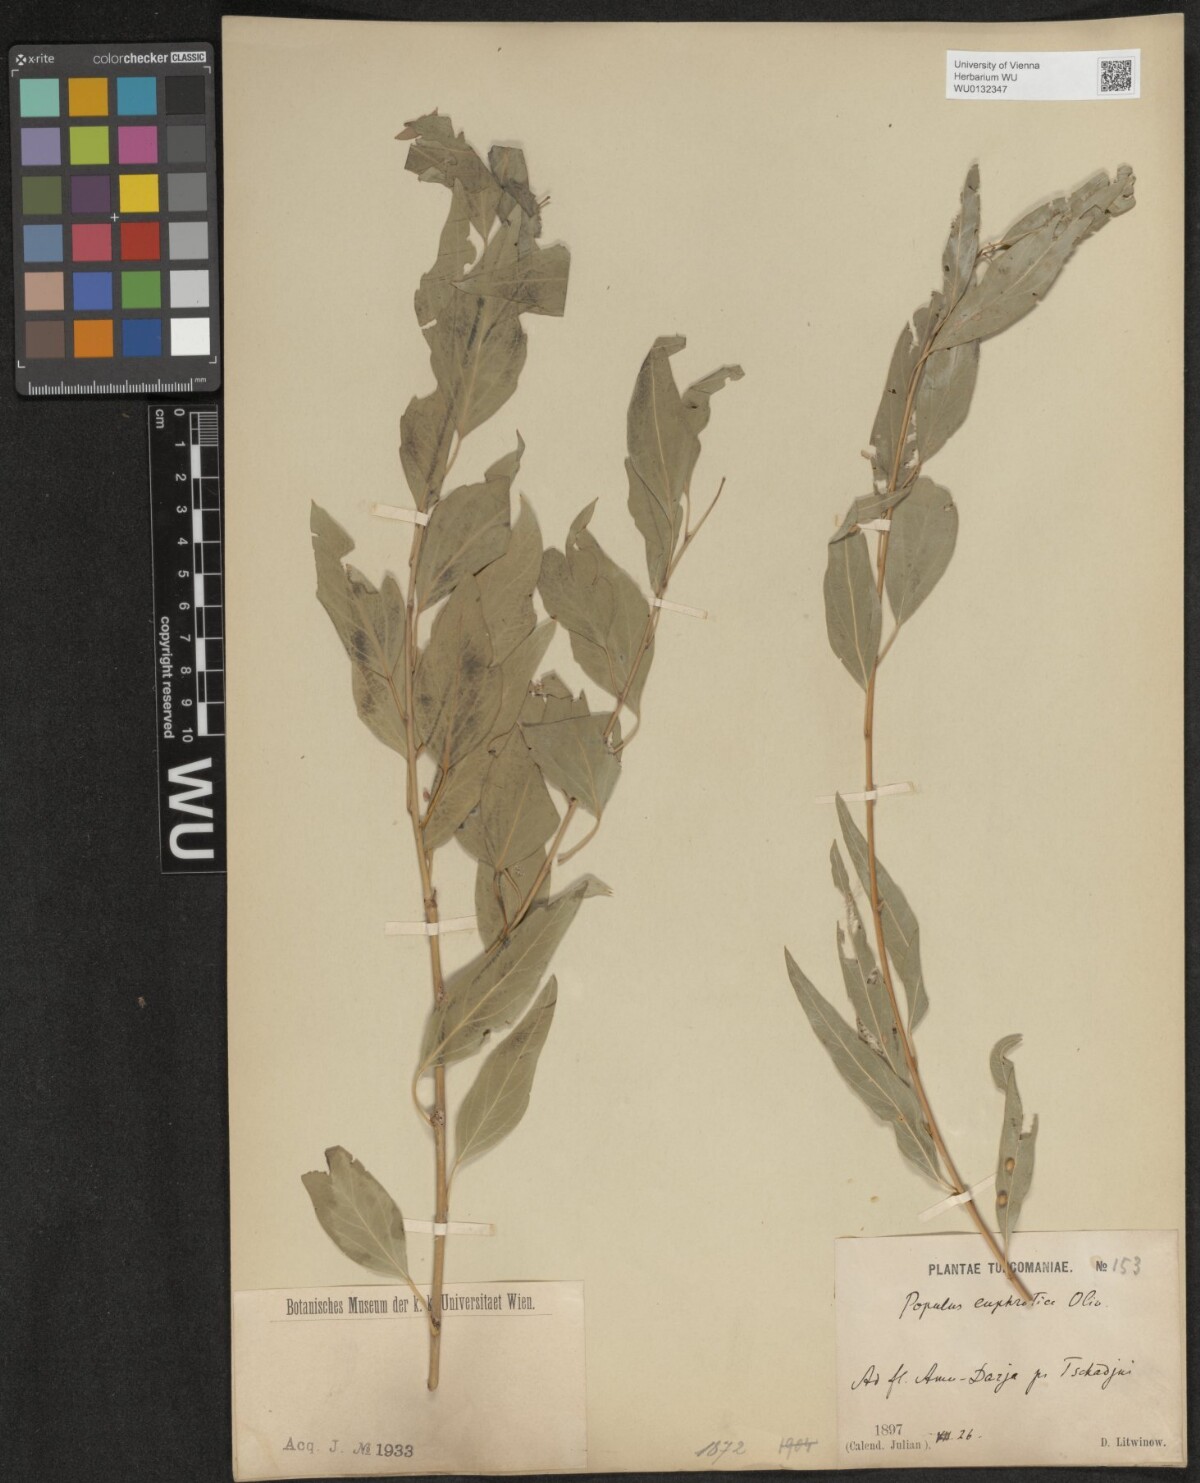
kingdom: Plantae
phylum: Tracheophyta
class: Magnoliopsida
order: Malpighiales
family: Salicaceae
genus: Populus
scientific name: Populus euphratica
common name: Euphrates poplar
